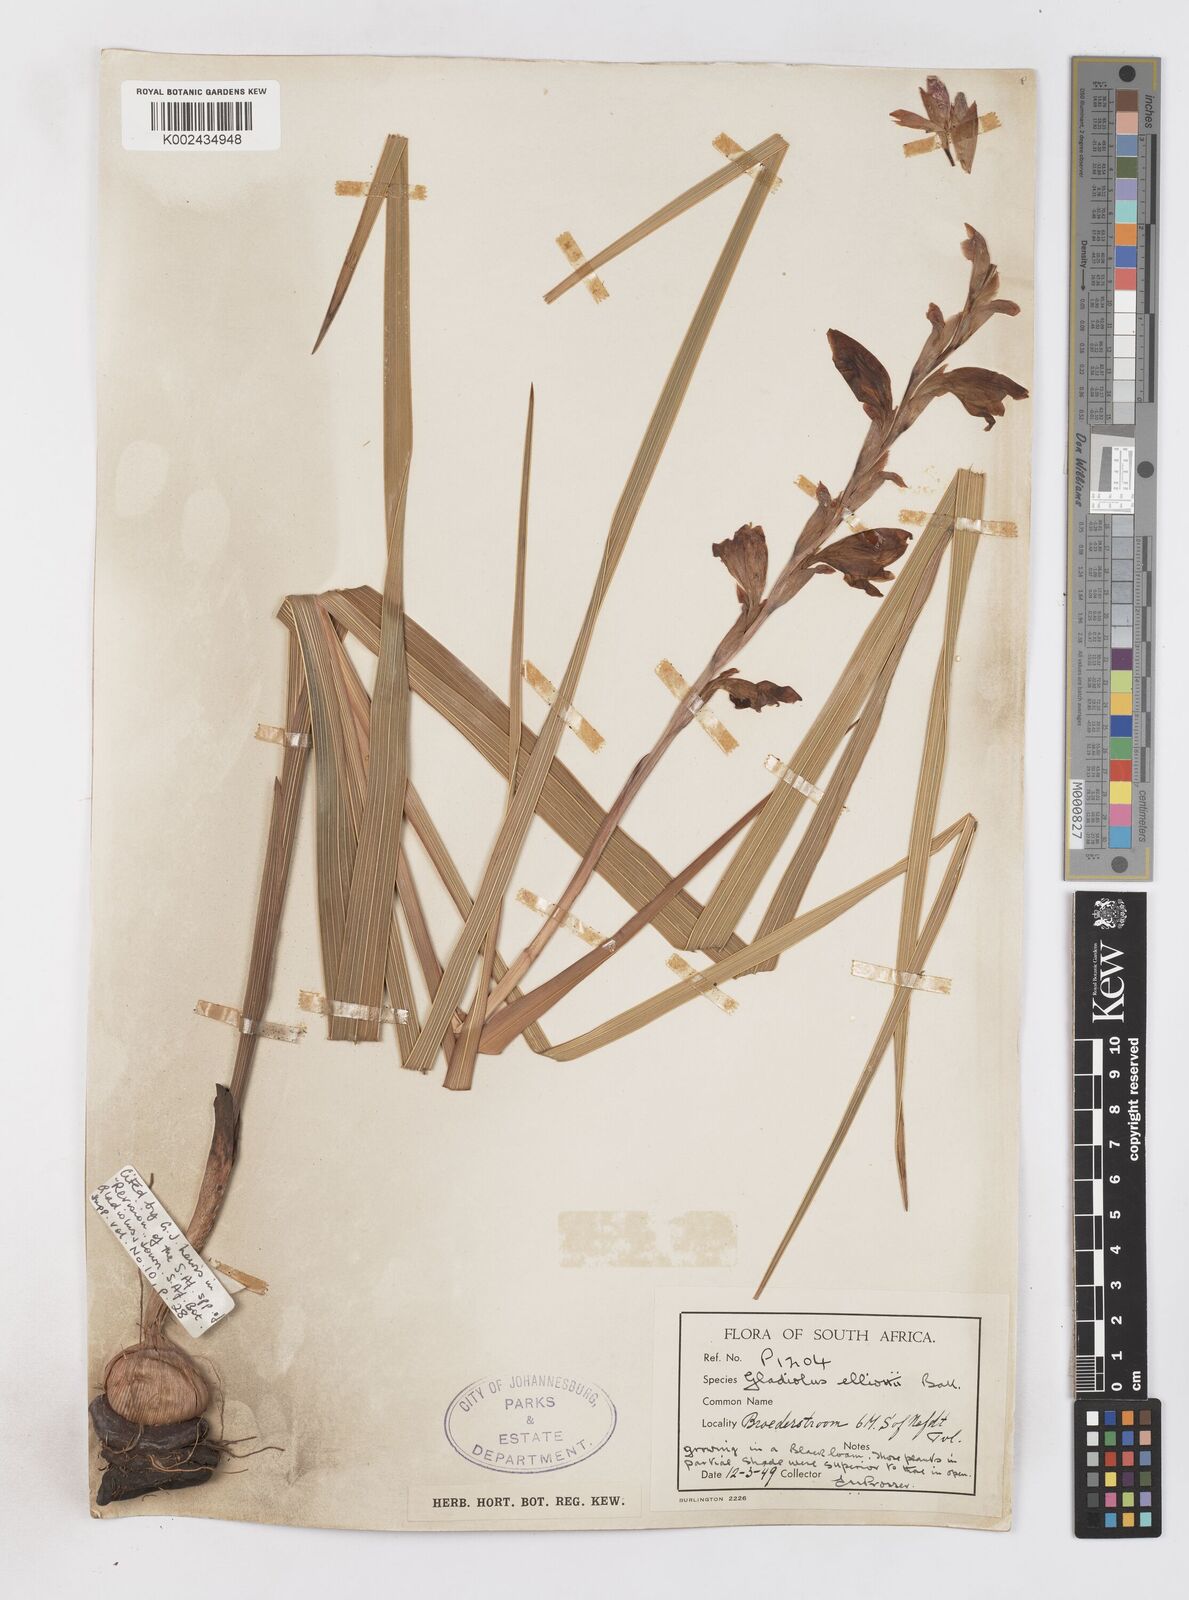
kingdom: Plantae
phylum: Tracheophyta
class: Liliopsida
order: Asparagales
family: Iridaceae
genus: Gladiolus
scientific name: Gladiolus sericeovillosus
